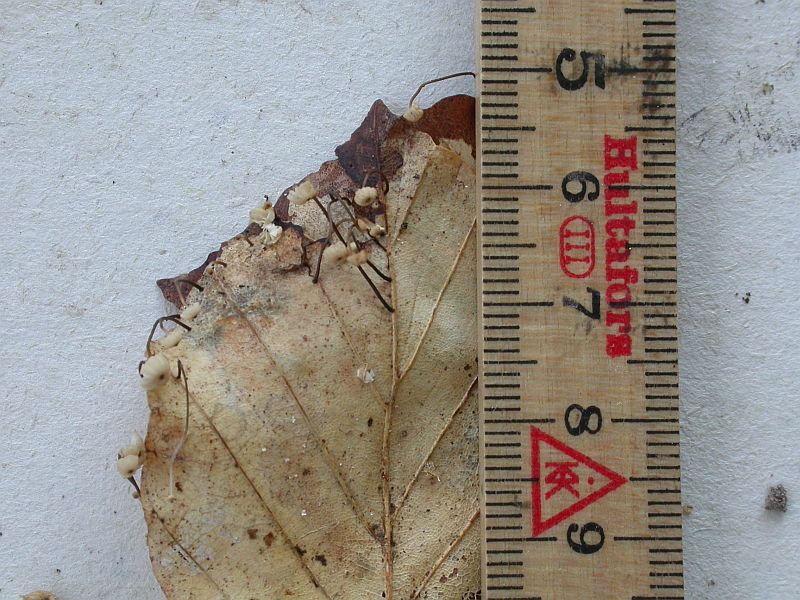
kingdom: Fungi
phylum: Basidiomycota
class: Agaricomycetes
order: Agaricales
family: Marasmiaceae
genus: Marasmius
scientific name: Marasmius bulliardii
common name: furet bruskhat
